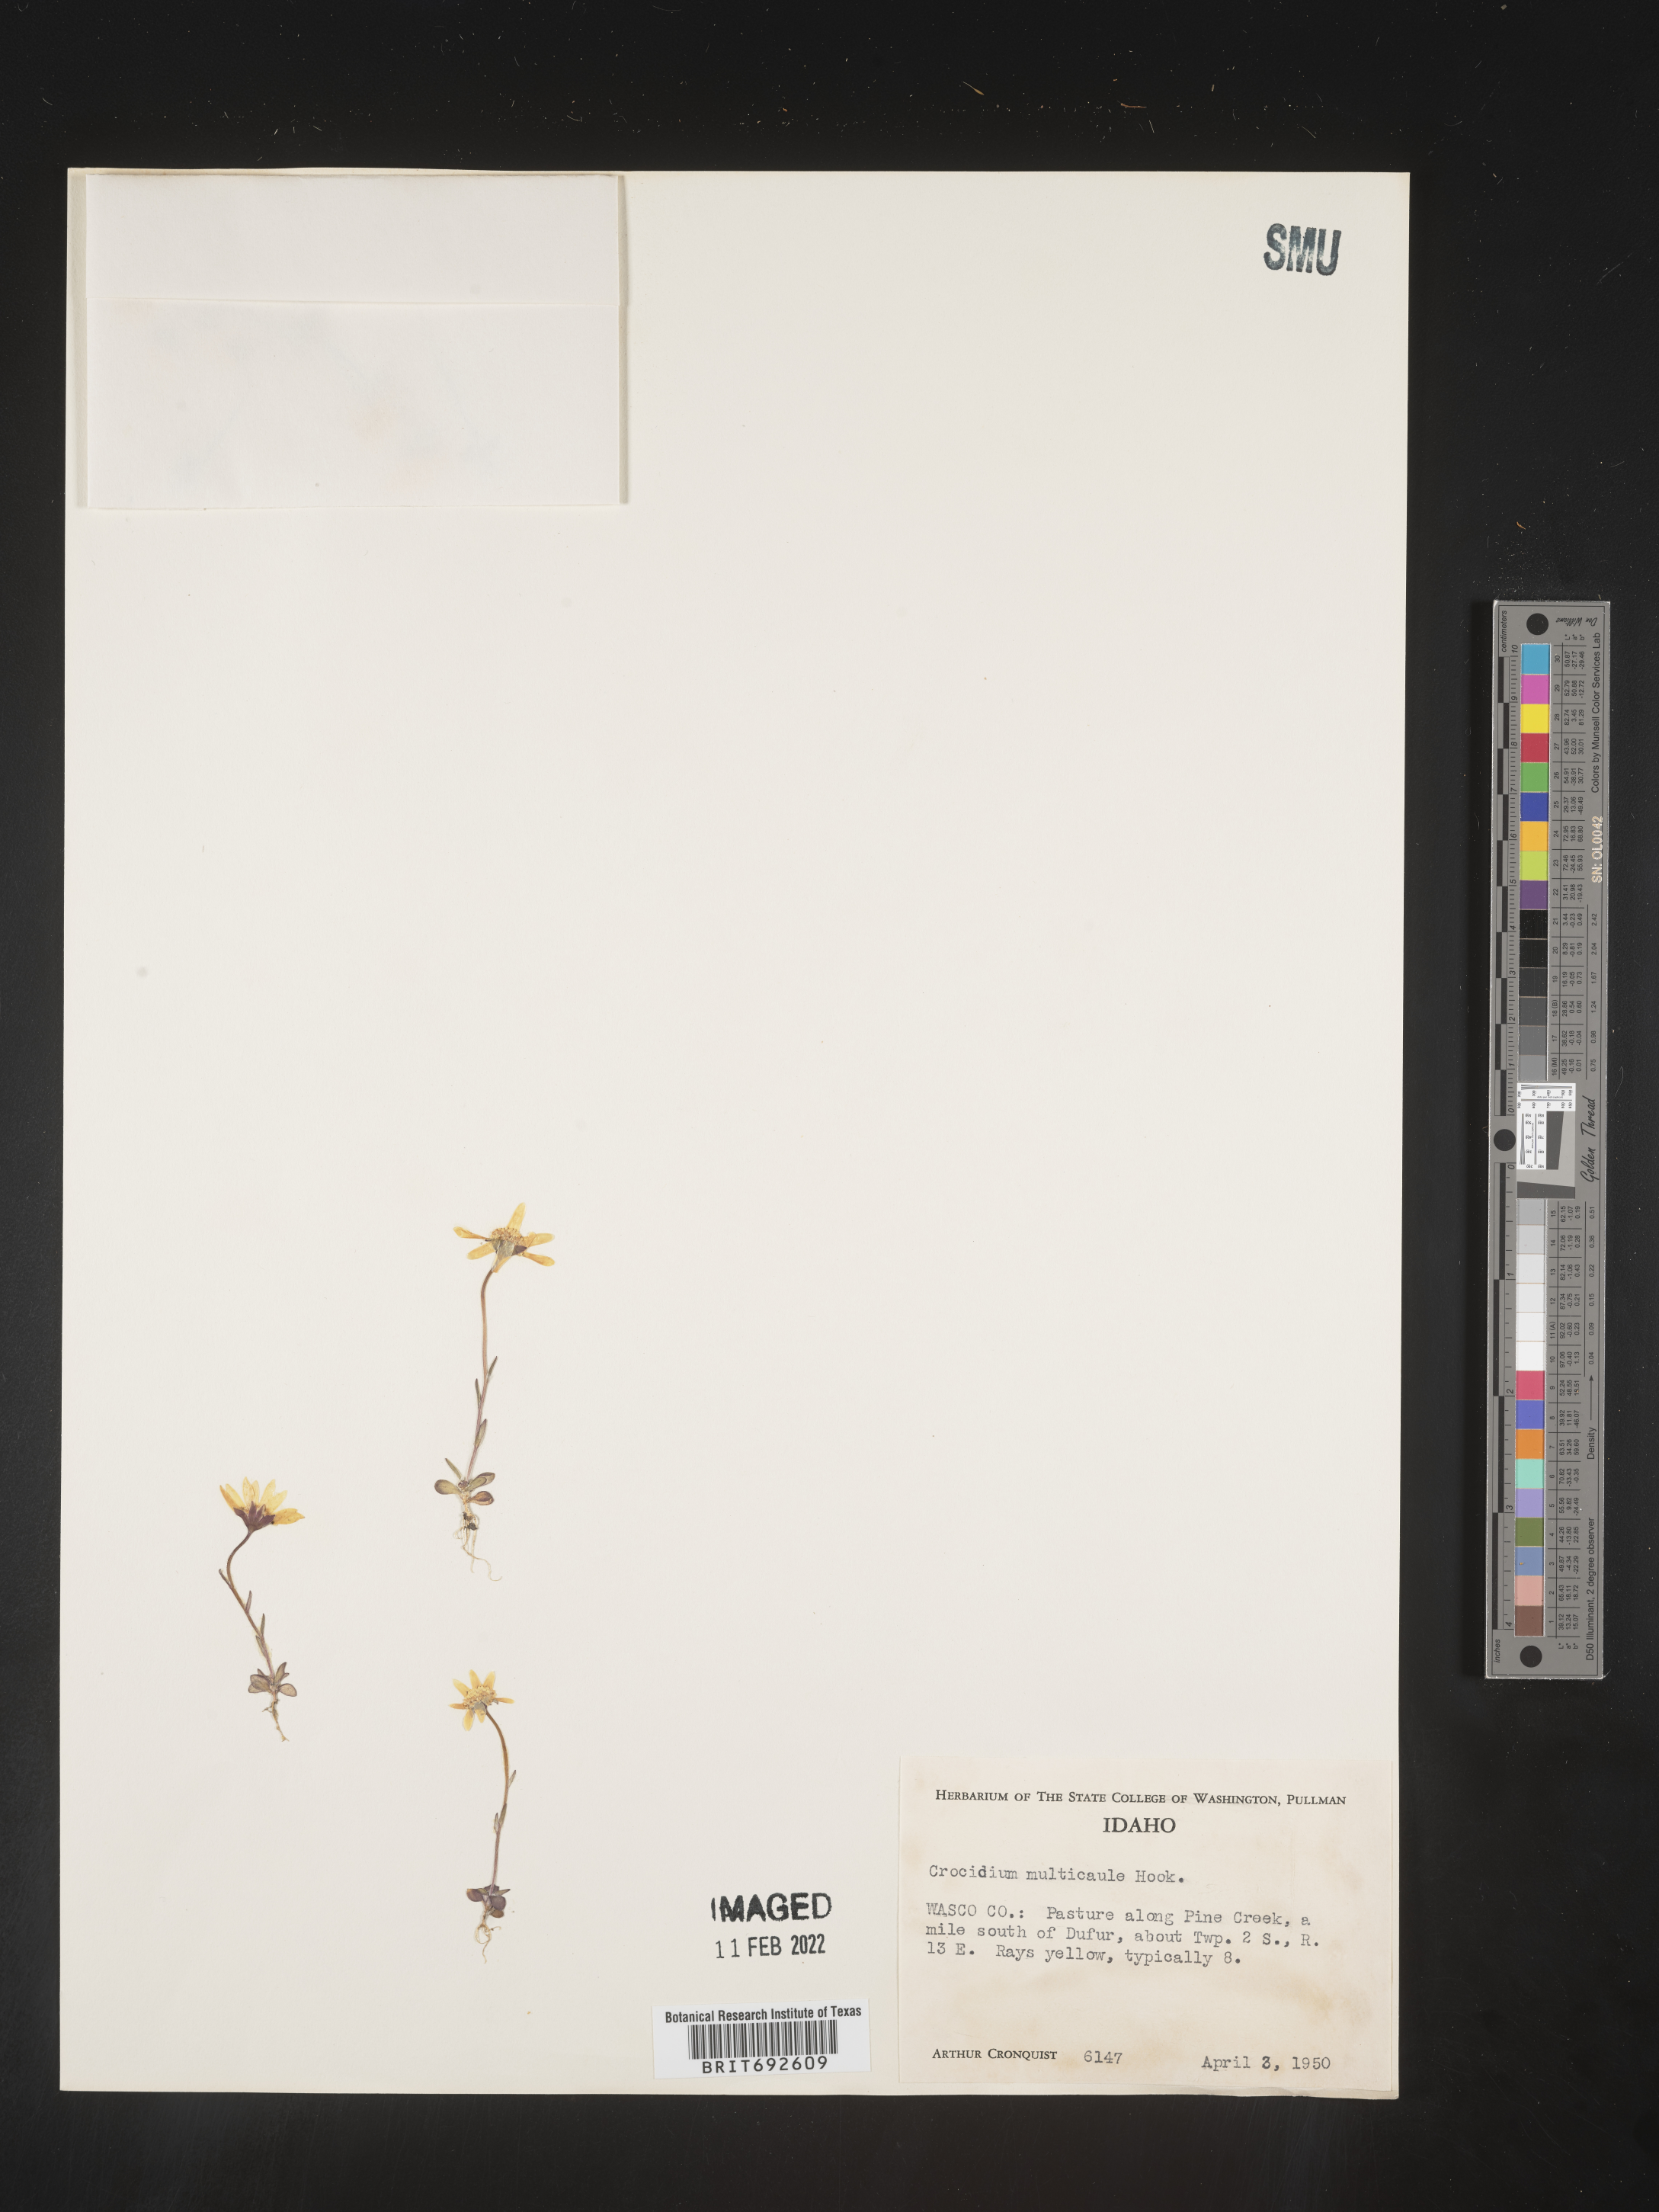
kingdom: Plantae
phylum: Tracheophyta
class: Magnoliopsida
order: Asterales
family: Asteraceae
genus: Crocidium
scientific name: Crocidium
